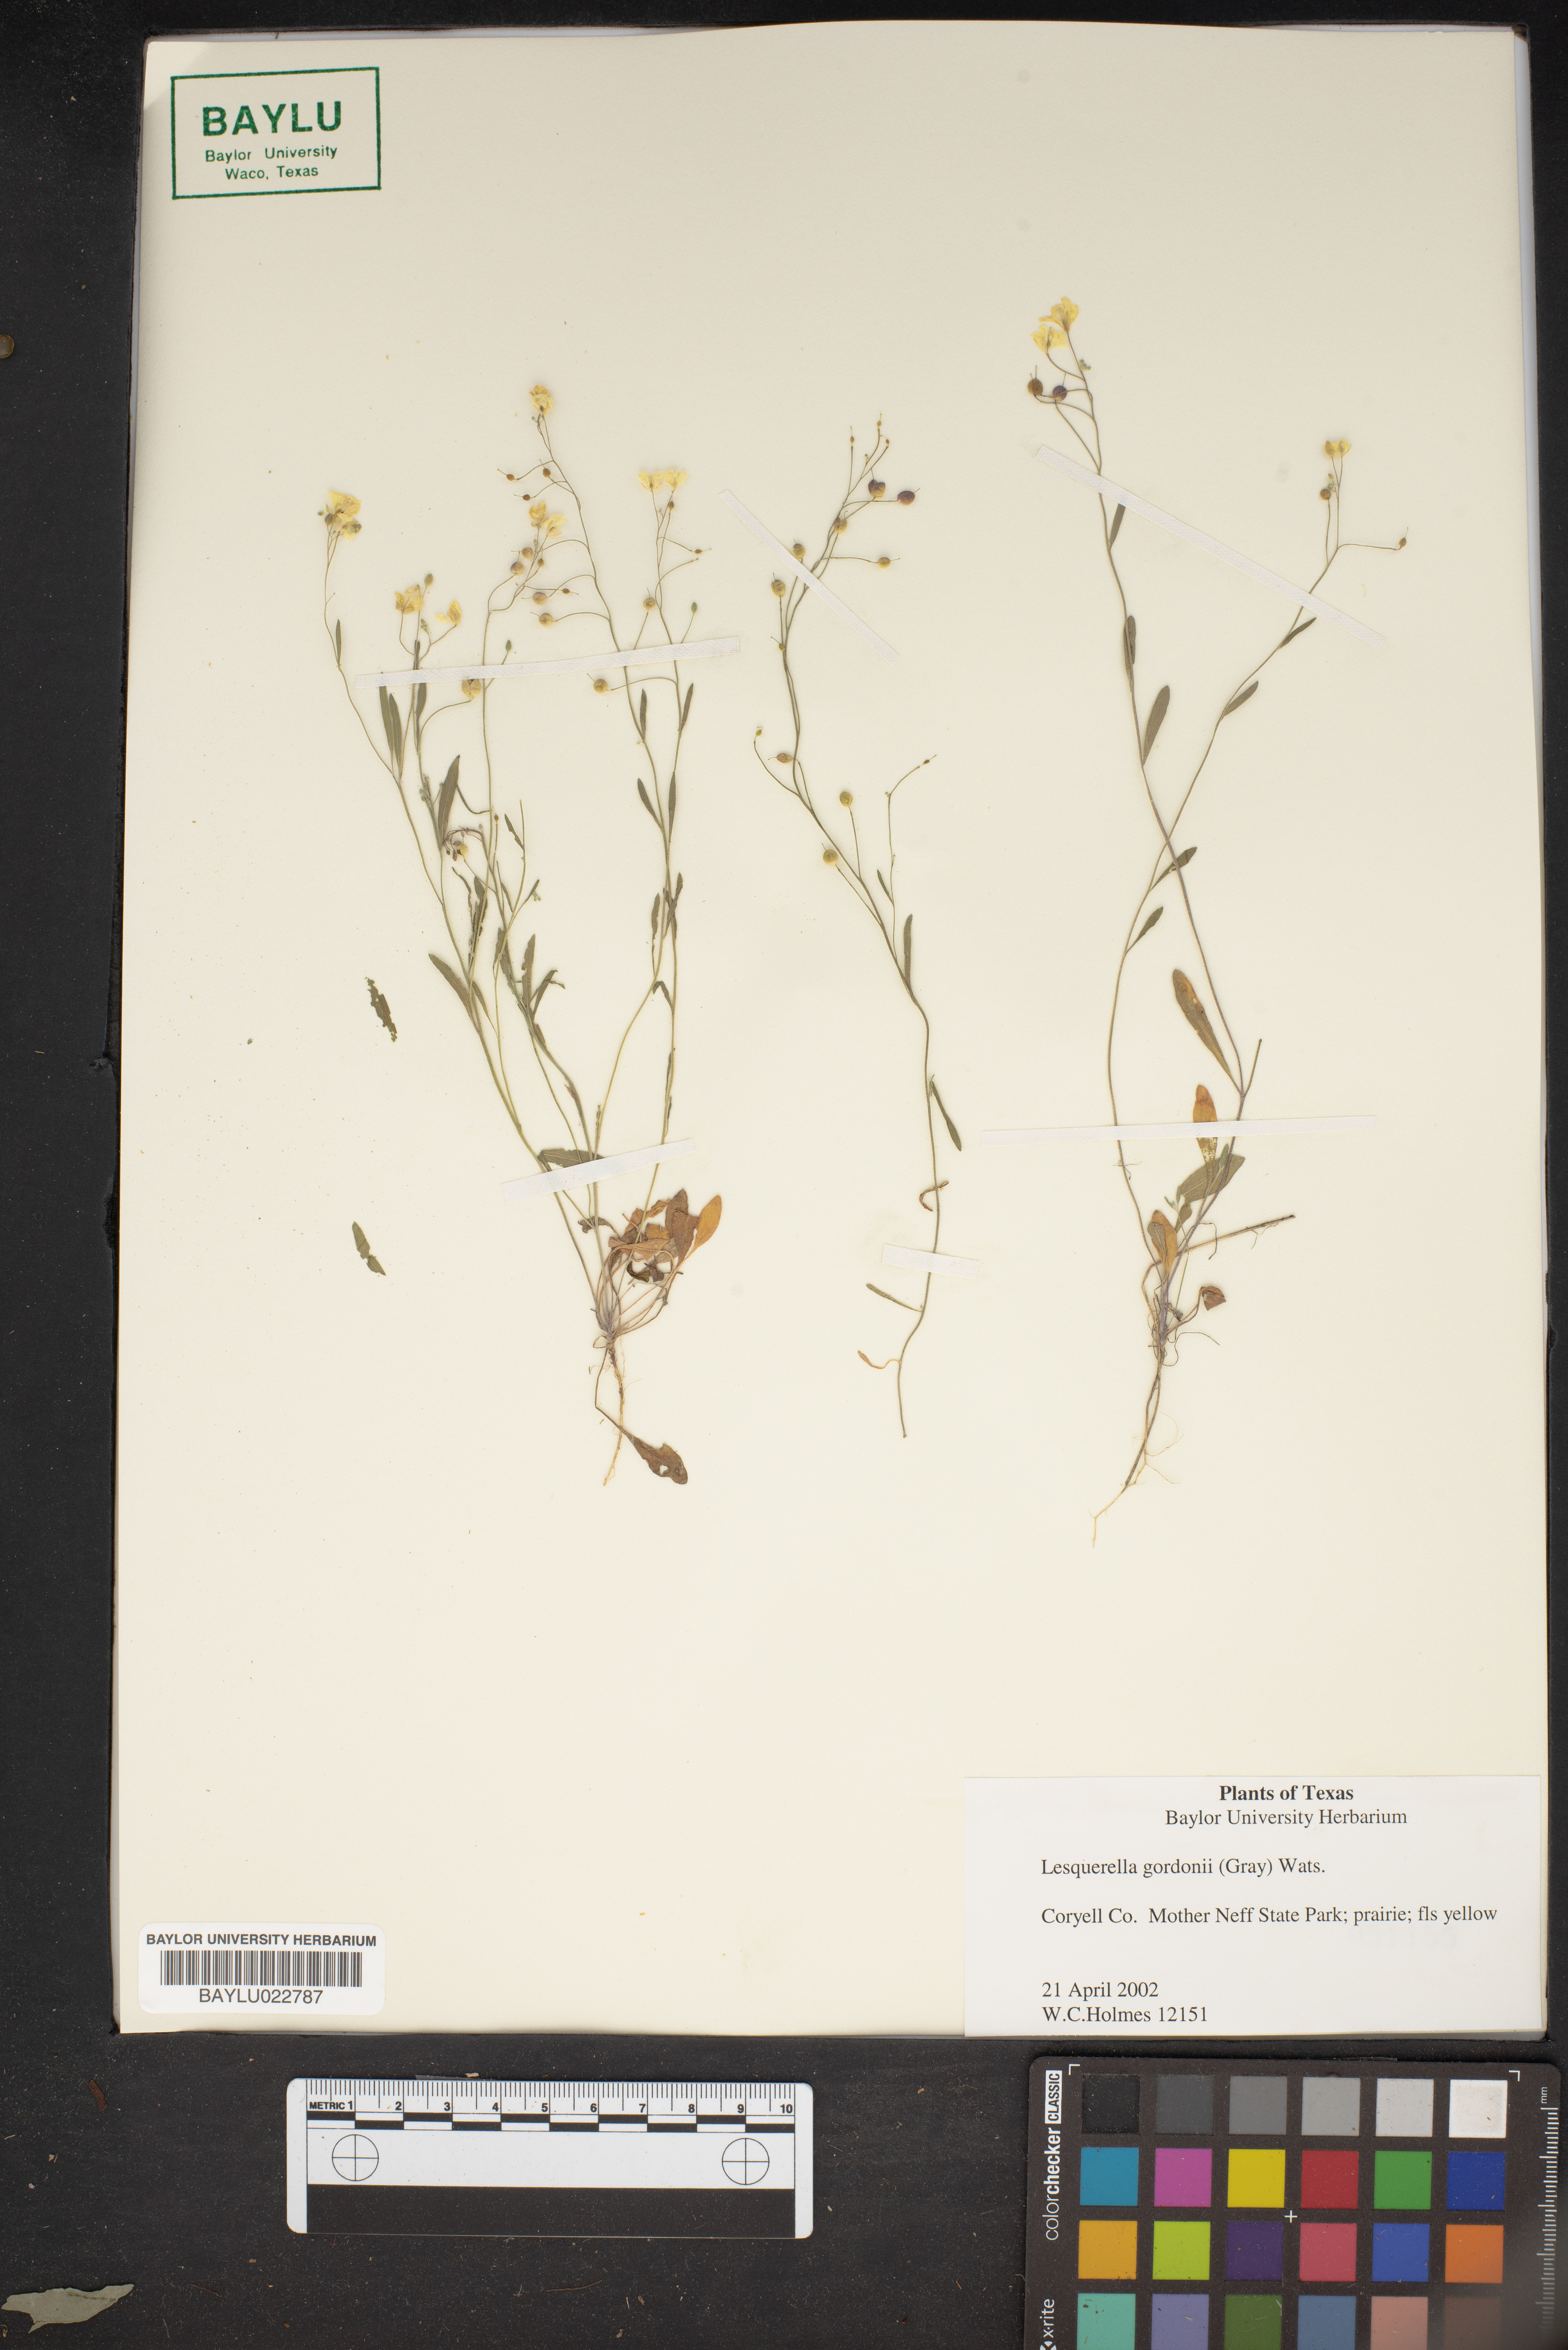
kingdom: Plantae
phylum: Tracheophyta
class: Magnoliopsida
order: Brassicales
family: Brassicaceae
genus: Physaria
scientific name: Physaria gordonii
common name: Gordon's bladderpod
